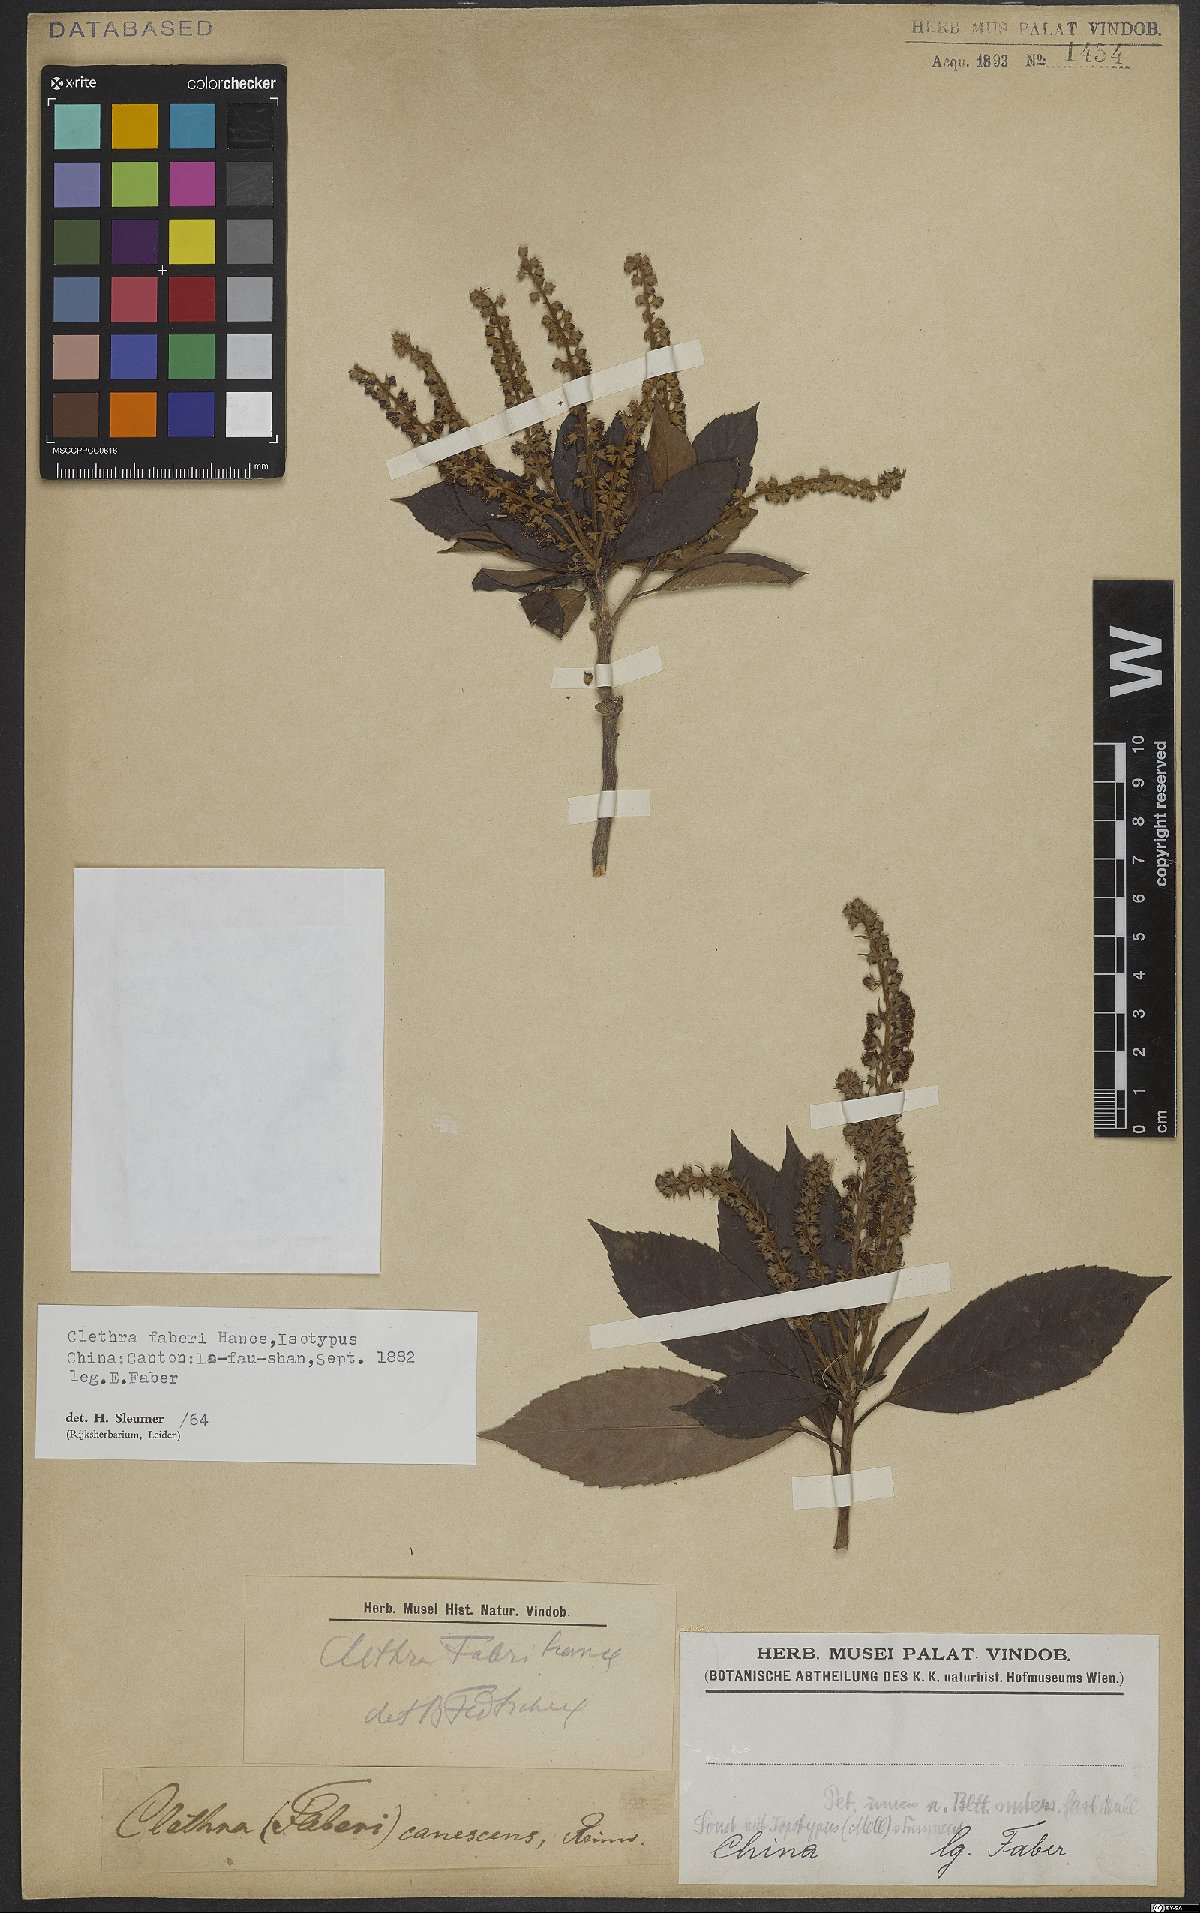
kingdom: Plantae
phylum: Tracheophyta
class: Magnoliopsida
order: Ericales
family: Clethraceae
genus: Clethra
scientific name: Clethra fabri
